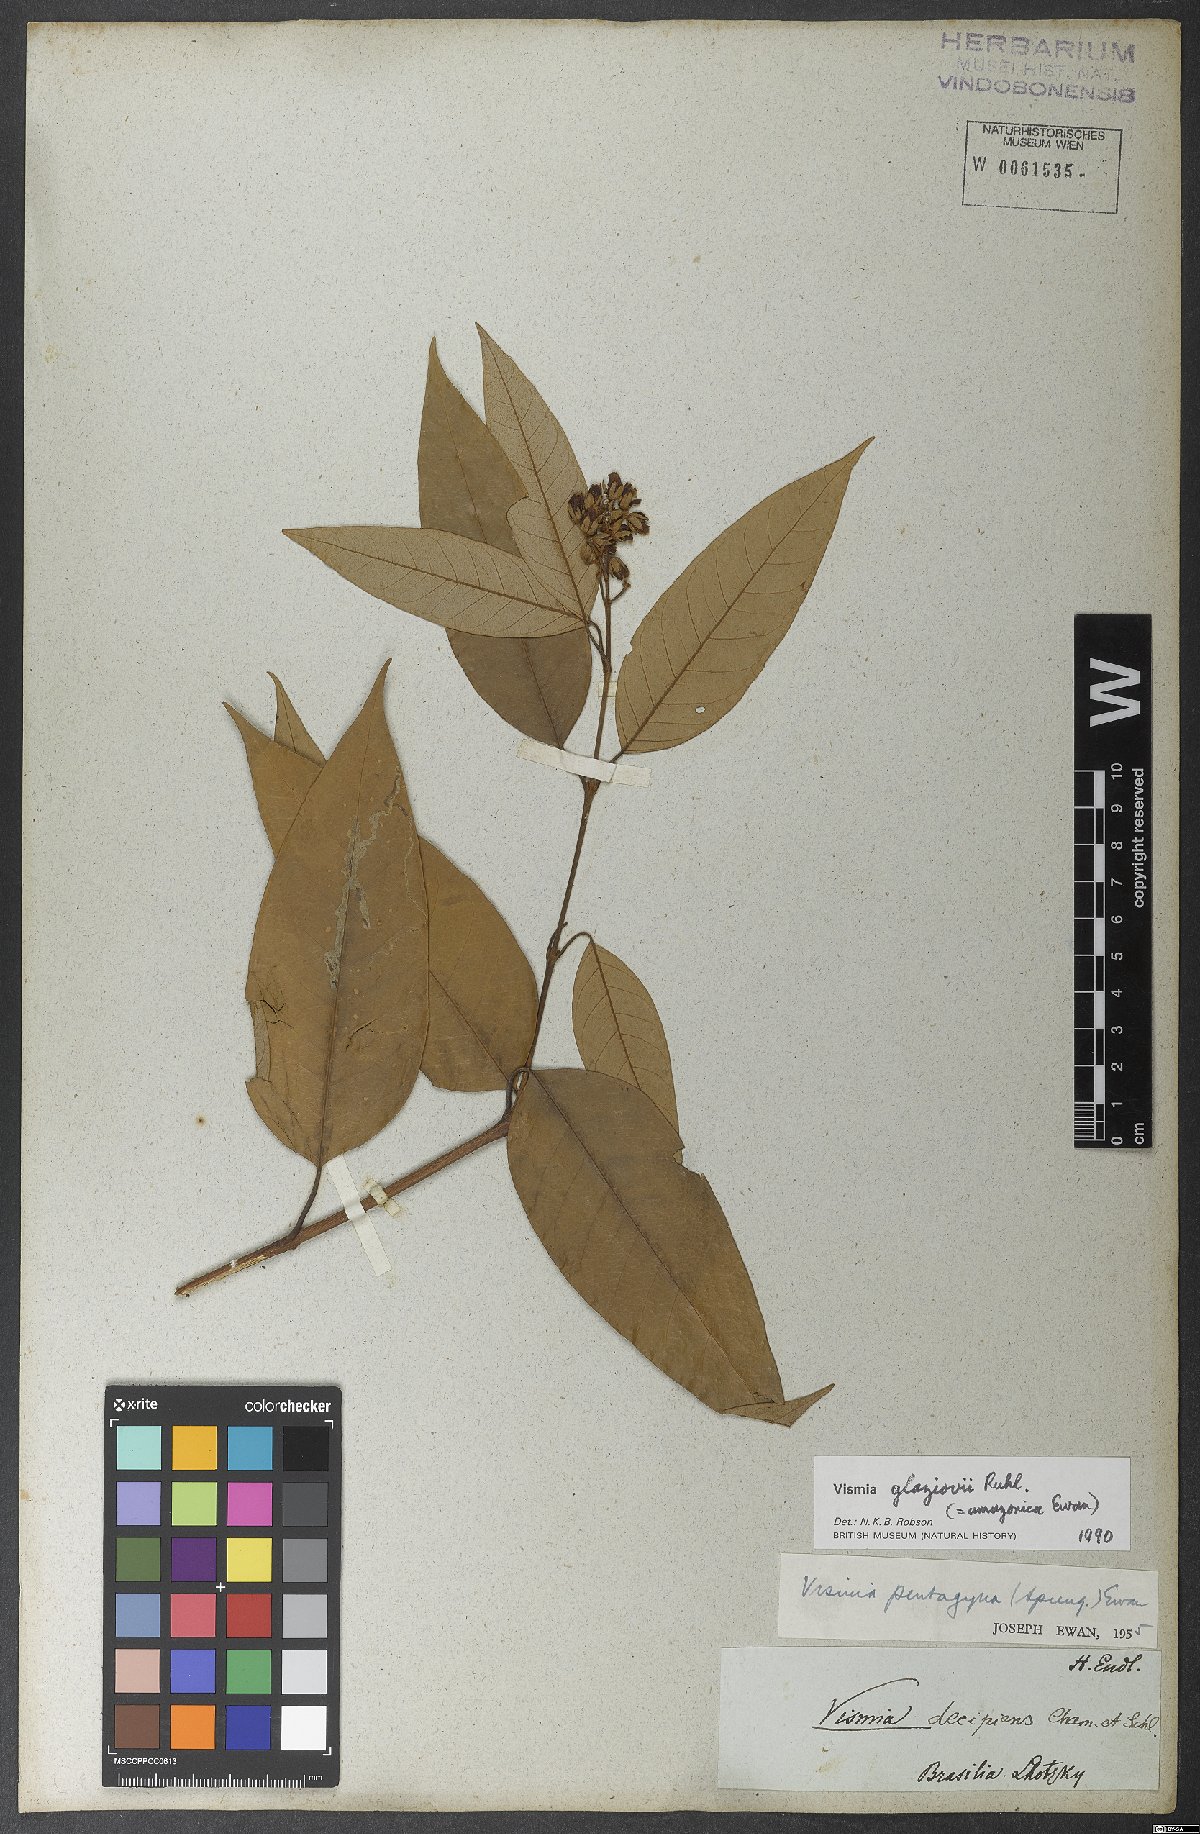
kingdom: Plantae
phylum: Tracheophyta
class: Magnoliopsida
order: Malpighiales
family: Hypericaceae
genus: Vismia
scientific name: Vismia gracilis
